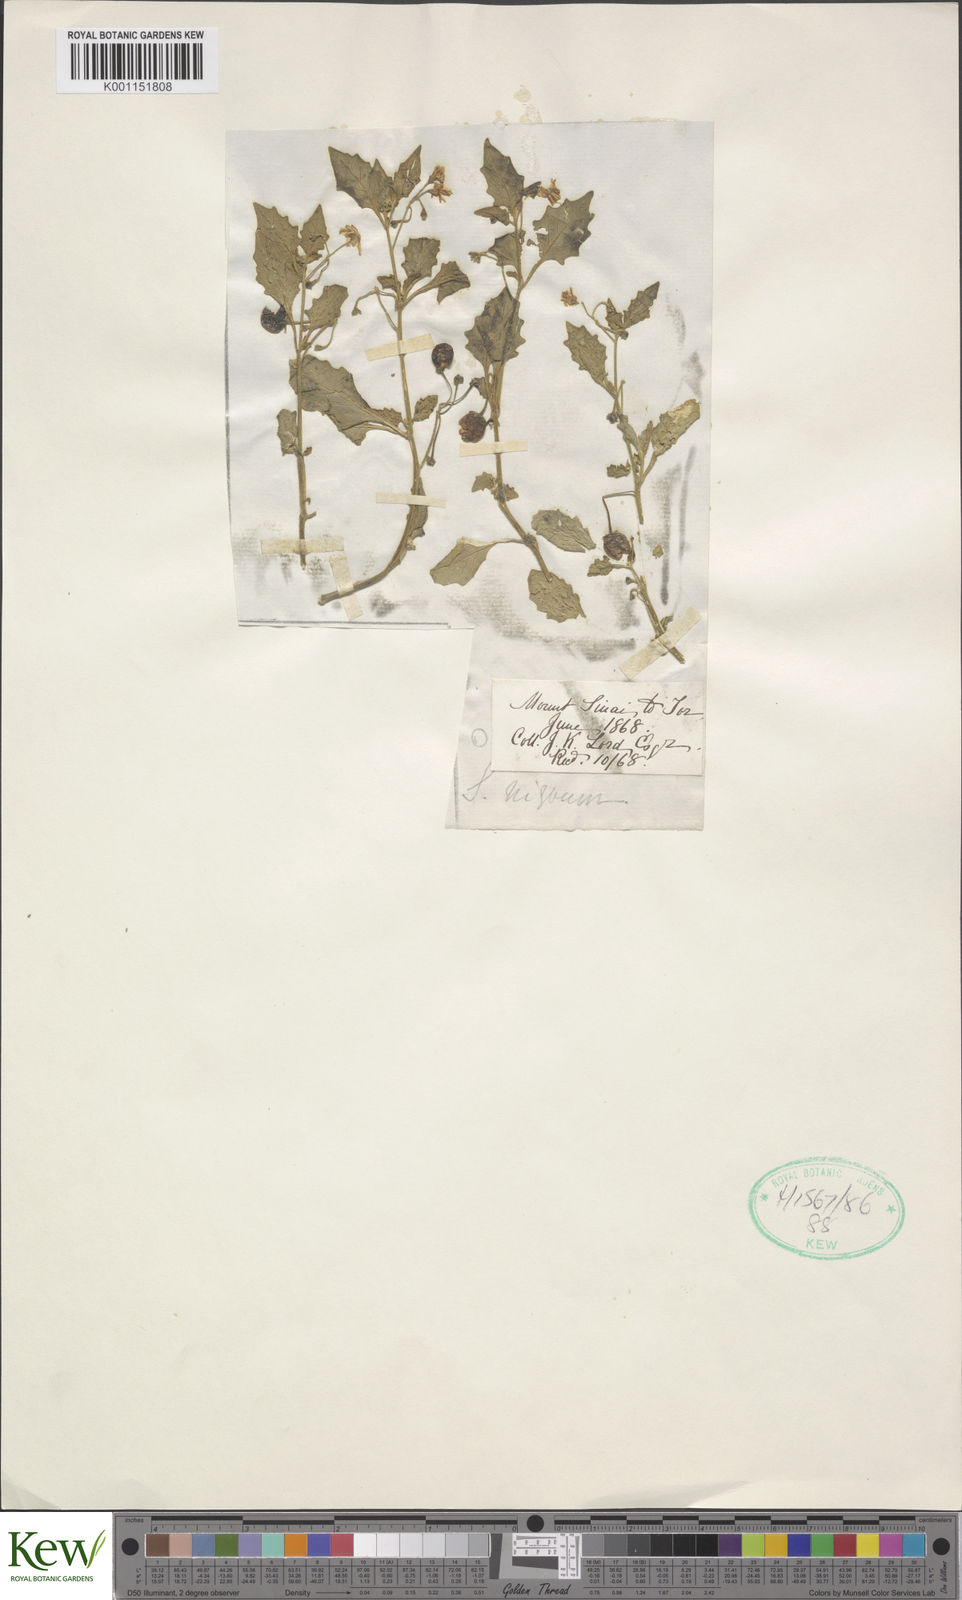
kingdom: Plantae
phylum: Tracheophyta
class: Magnoliopsida
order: Solanales
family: Solanaceae
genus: Solanum
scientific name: Solanum nigrum
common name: Black nightshade
